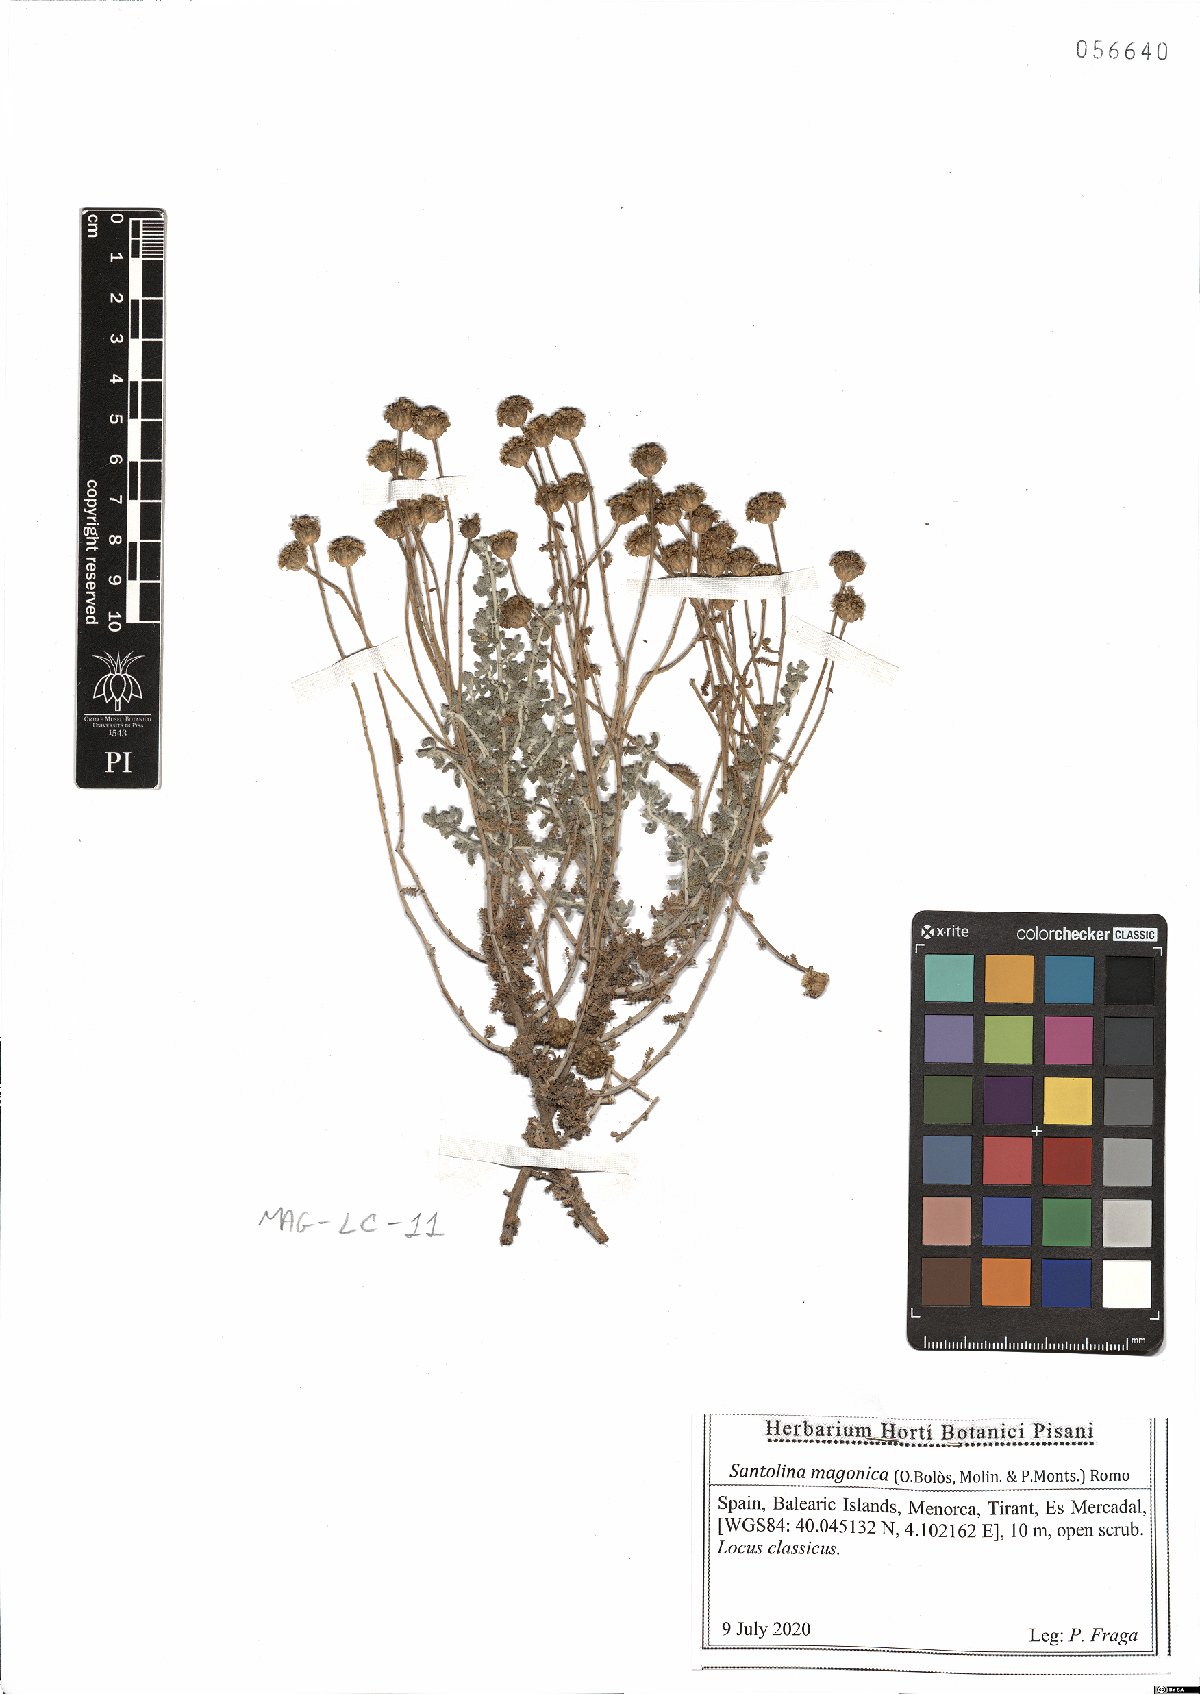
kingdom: Plantae
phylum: Tracheophyta
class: Magnoliopsida
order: Asterales
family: Asteraceae
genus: Santolina
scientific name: Santolina magonica
